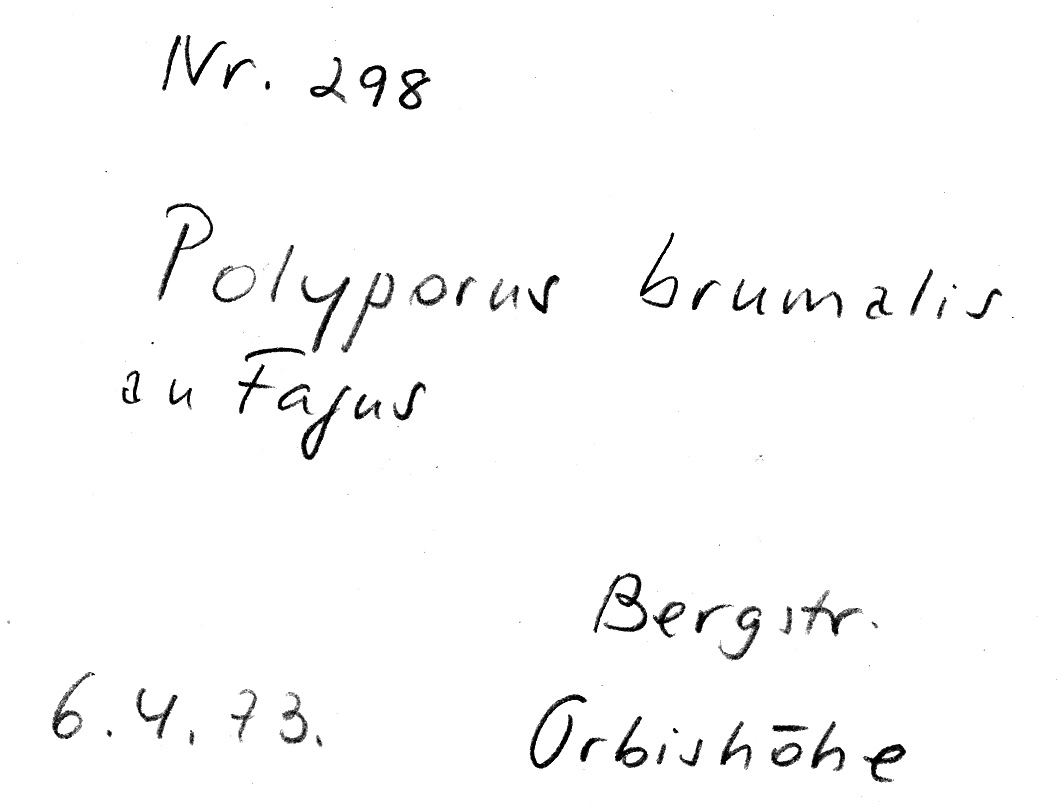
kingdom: Plantae
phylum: Tracheophyta
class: Magnoliopsida
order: Fagales
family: Fagaceae
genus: Fagus
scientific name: Fagus sylvatica
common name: Beech
